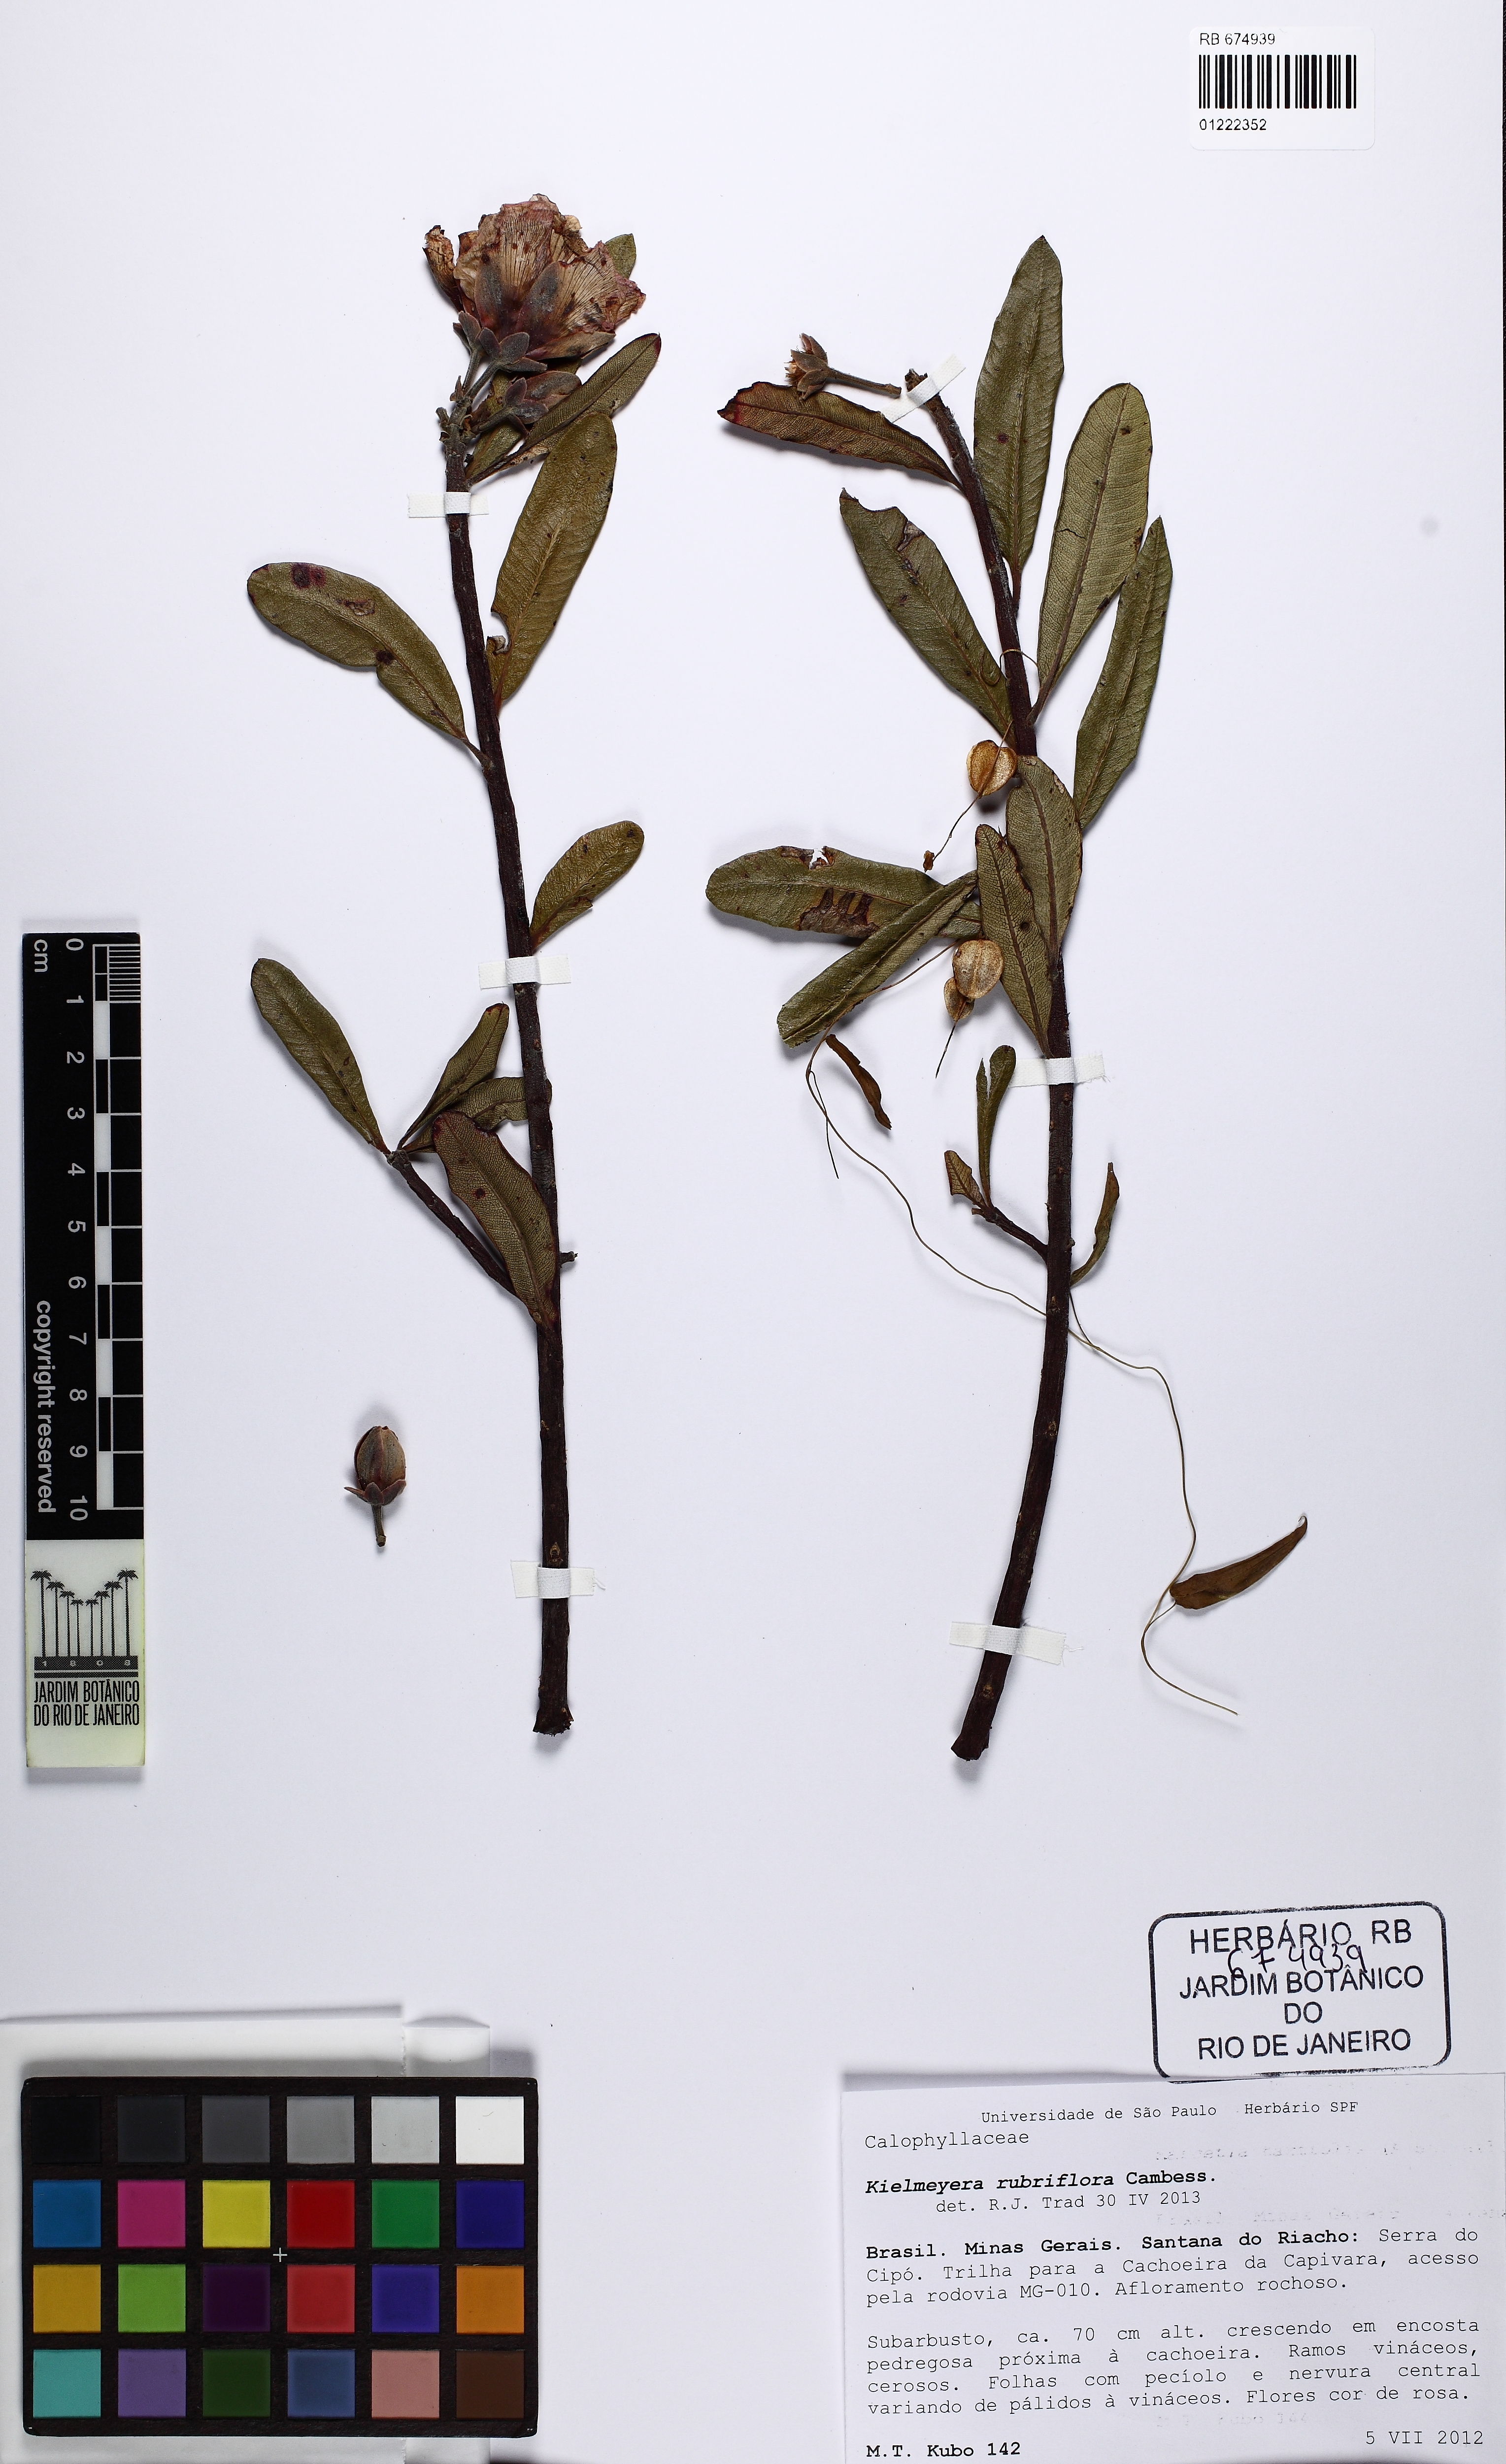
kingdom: Plantae
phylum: Tracheophyta
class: Magnoliopsida
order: Malpighiales
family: Calophyllaceae
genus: Kielmeyera
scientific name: Kielmeyera regalis
